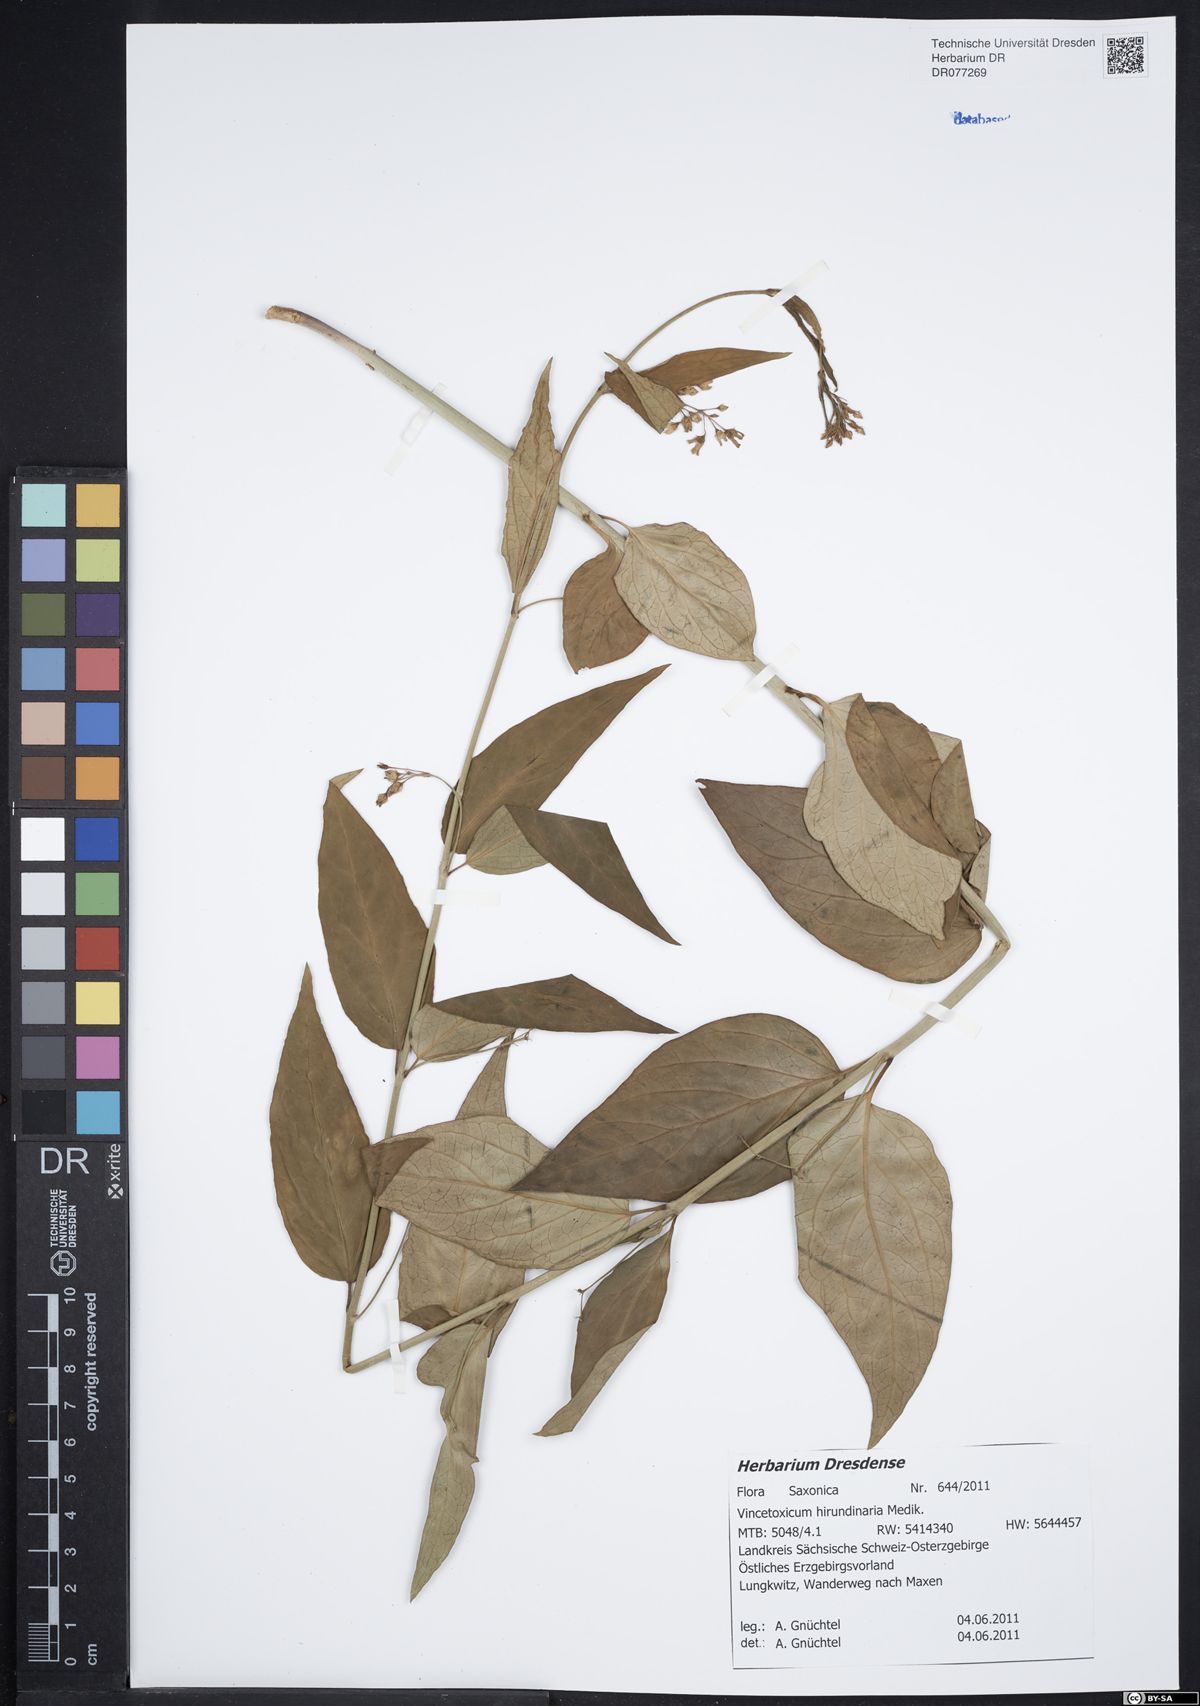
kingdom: Plantae
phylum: Tracheophyta
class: Magnoliopsida
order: Gentianales
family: Apocynaceae
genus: Vincetoxicum
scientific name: Vincetoxicum hirundinaria
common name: White swallowwort
